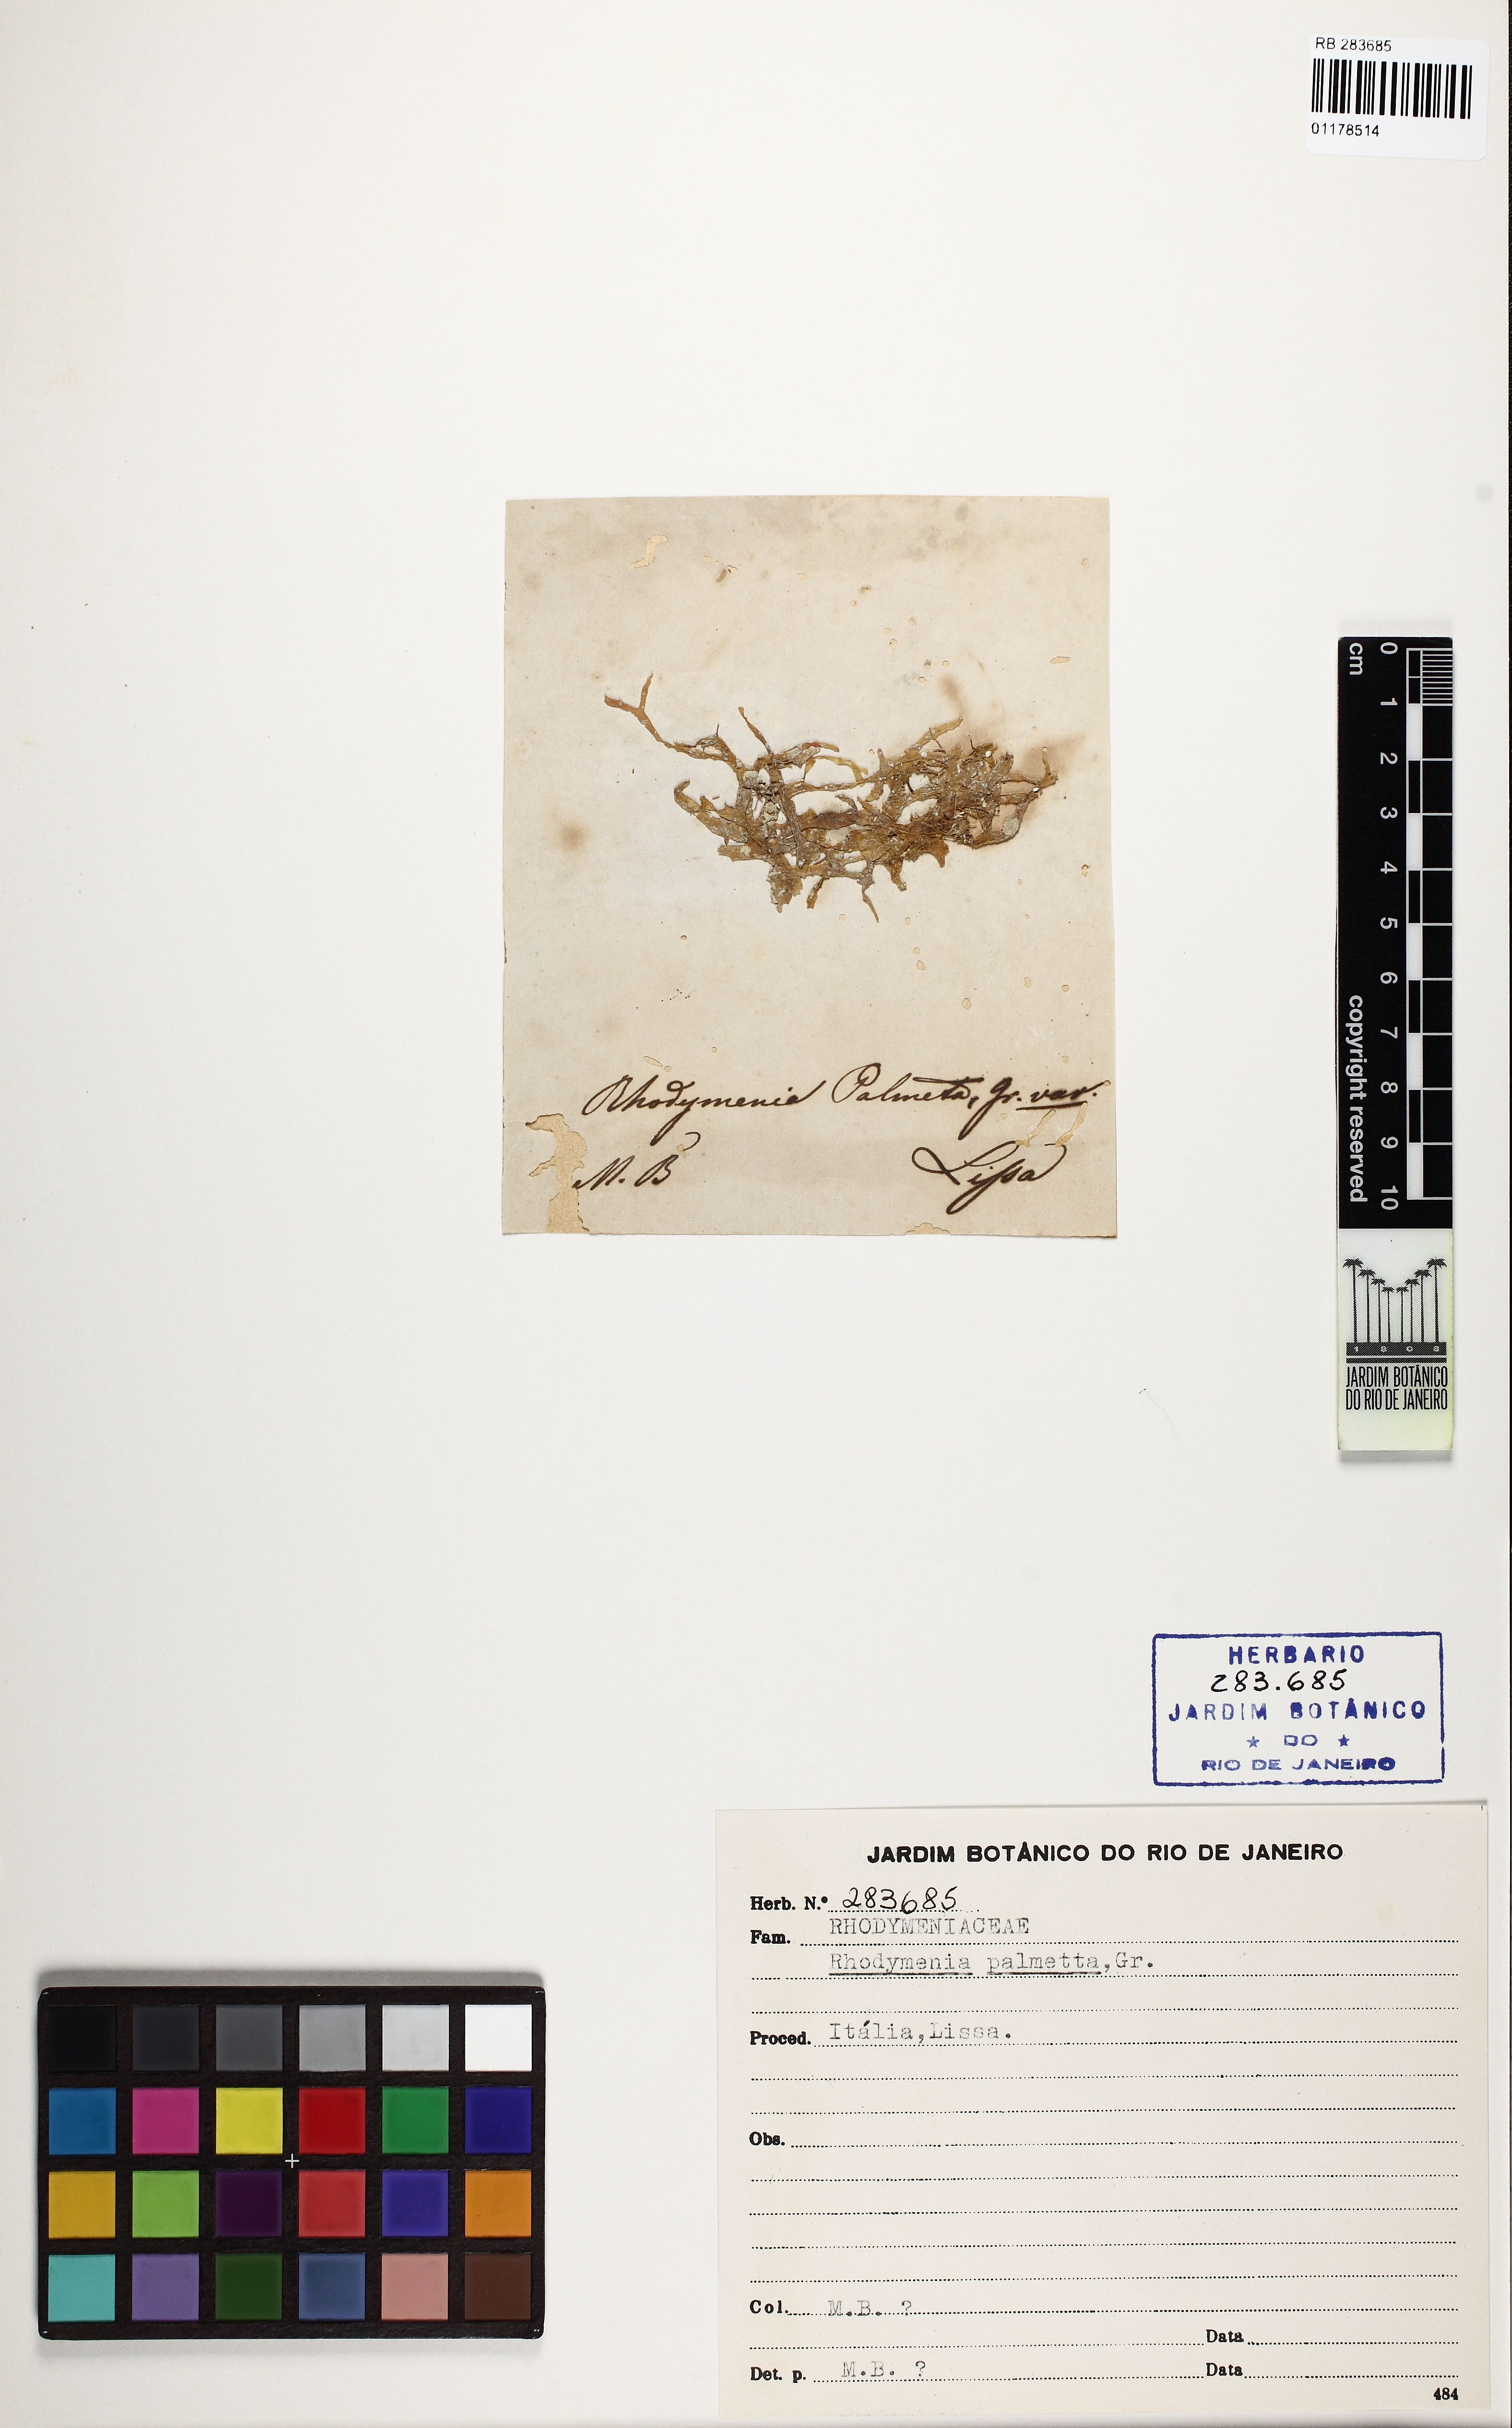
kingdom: Plantae
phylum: Rhodophyta
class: Florideophyceae
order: Rhodymeniales
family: Rhodymeniaceae
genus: Rhodymenia
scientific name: Rhodymenia pseudopalmata
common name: Palmate roseweed
